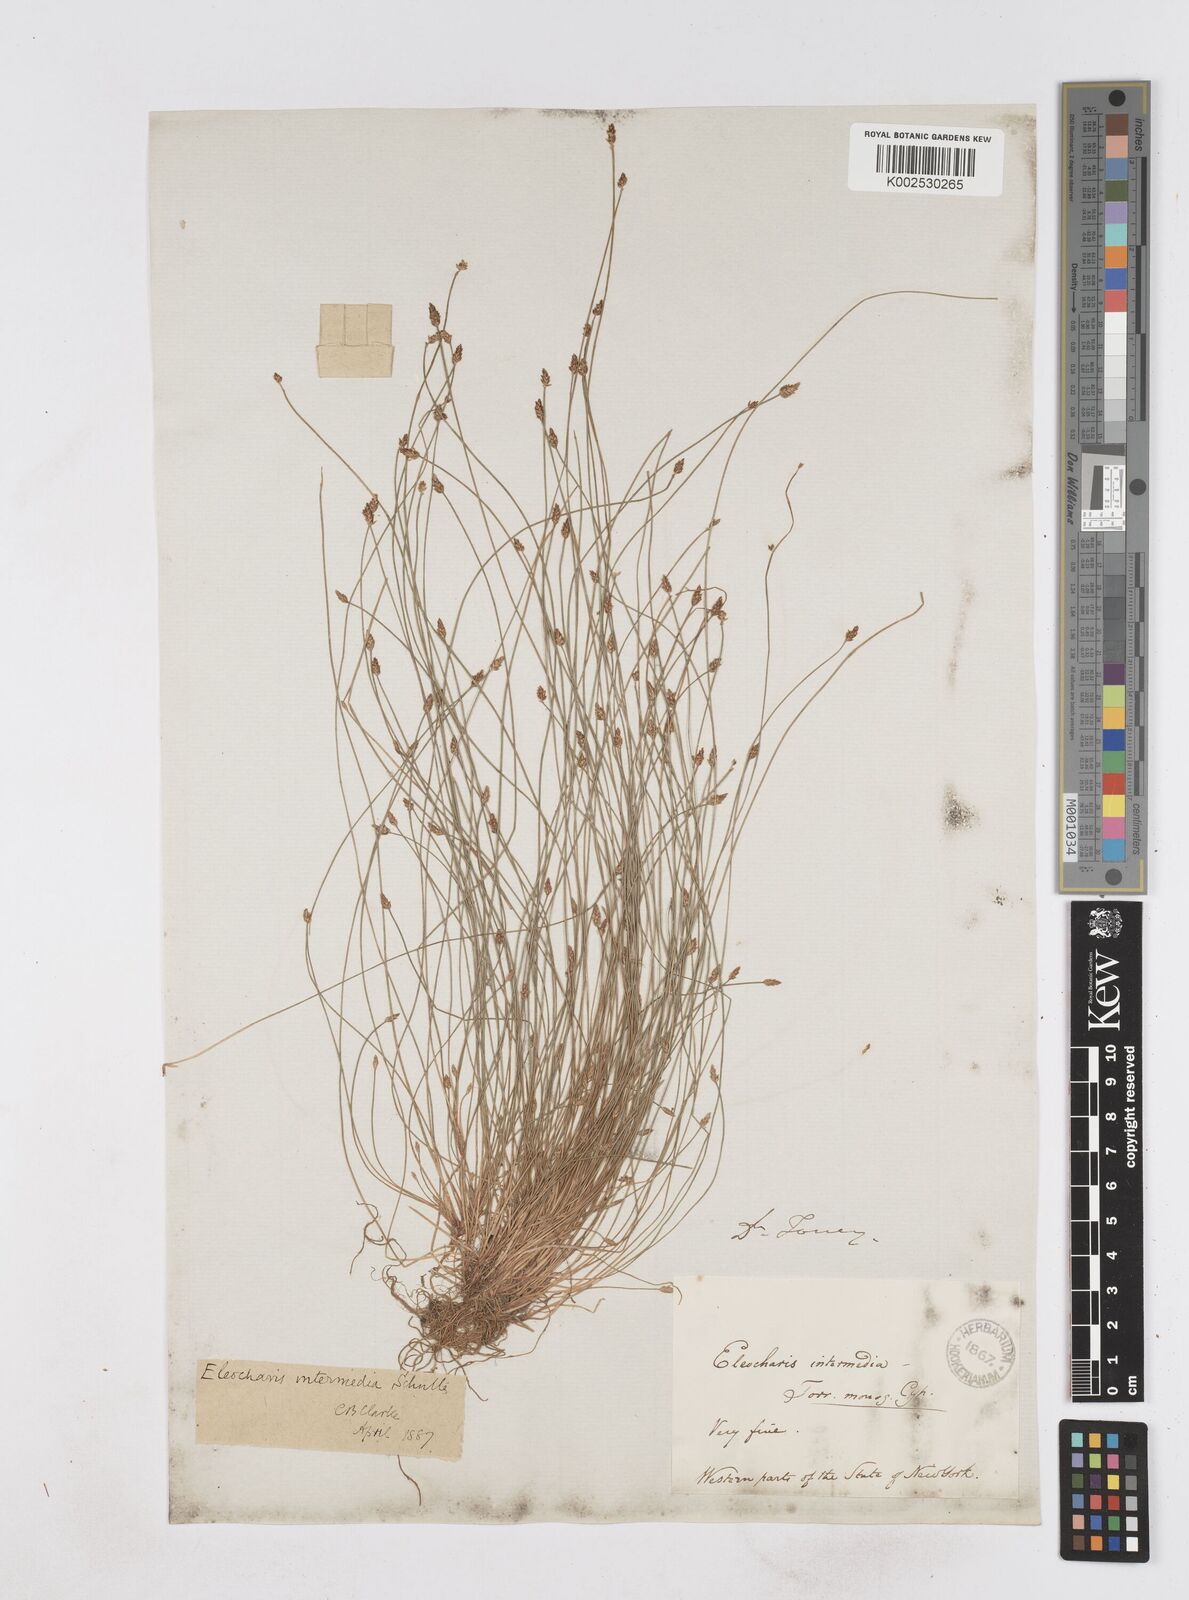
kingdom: Plantae
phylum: Tracheophyta
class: Liliopsida
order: Poales
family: Cyperaceae
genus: Eleocharis
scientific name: Eleocharis intermedia
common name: Intermediate spikerush
